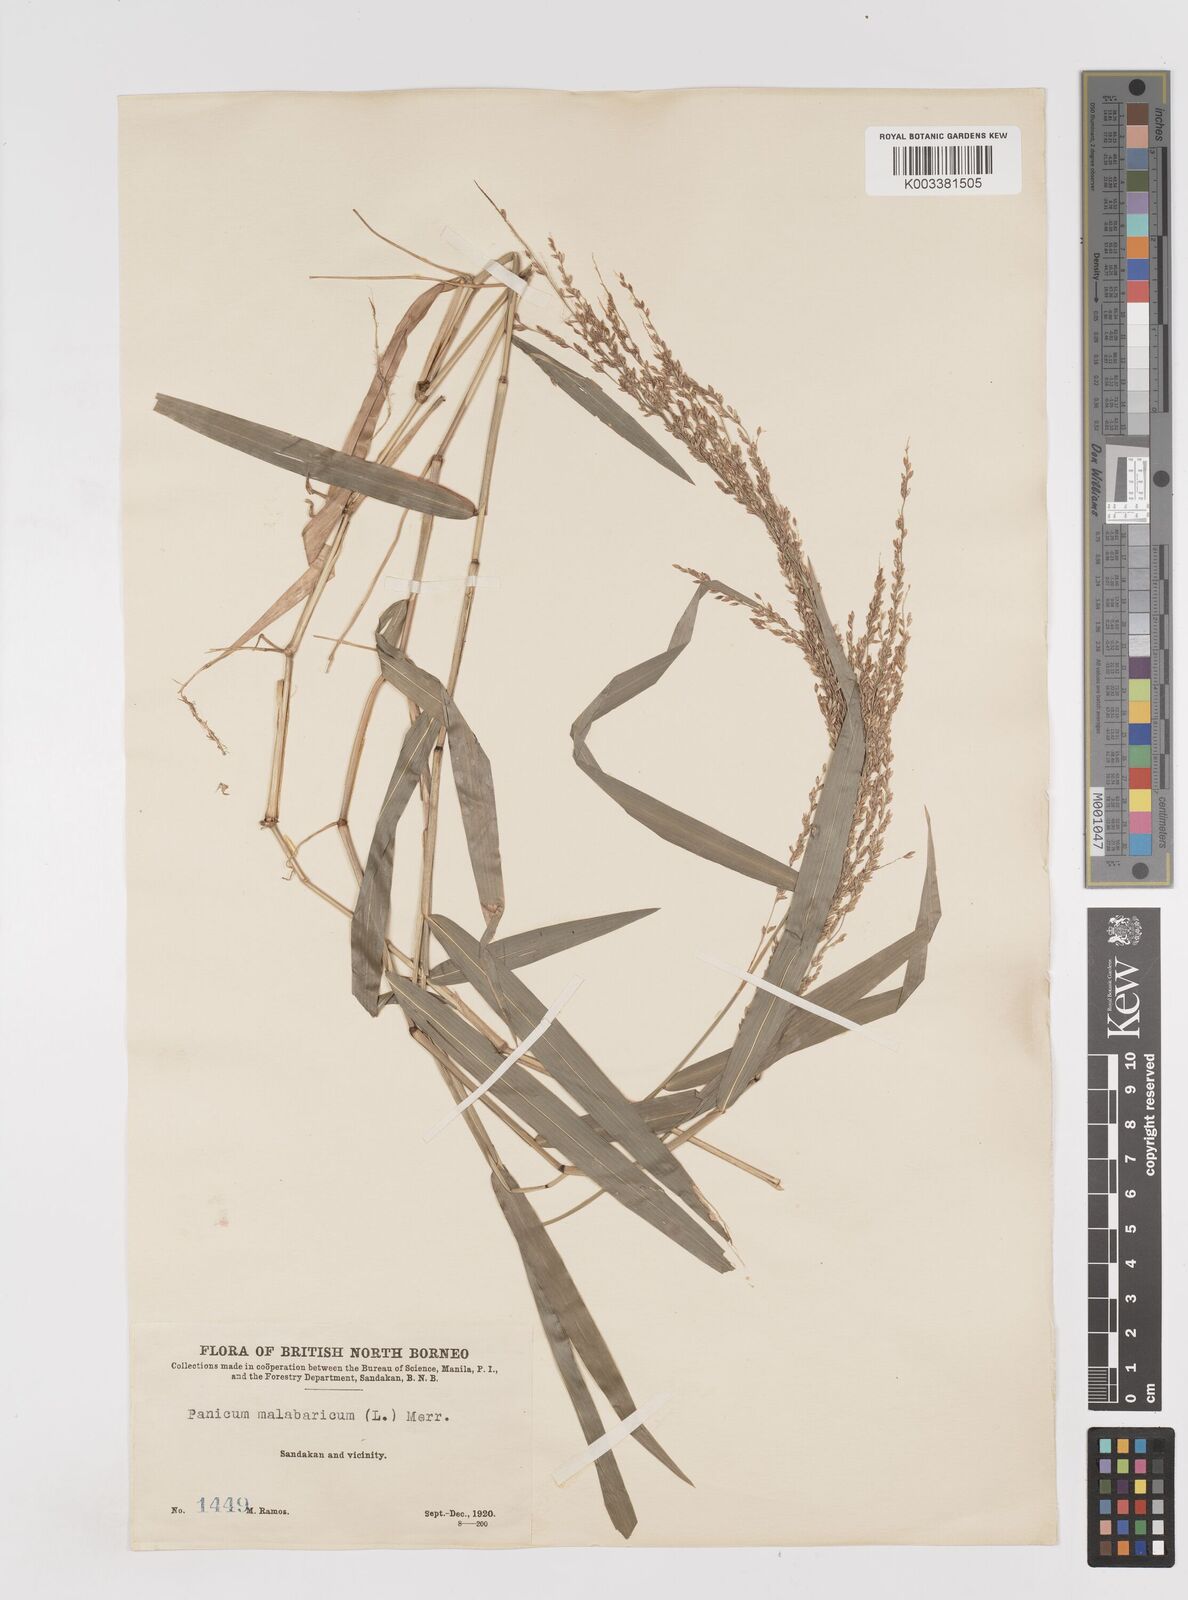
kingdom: Plantae
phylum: Tracheophyta
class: Liliopsida
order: Poales
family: Poaceae
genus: Ottochloa
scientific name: Ottochloa nodosa
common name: Slender-panic grass
